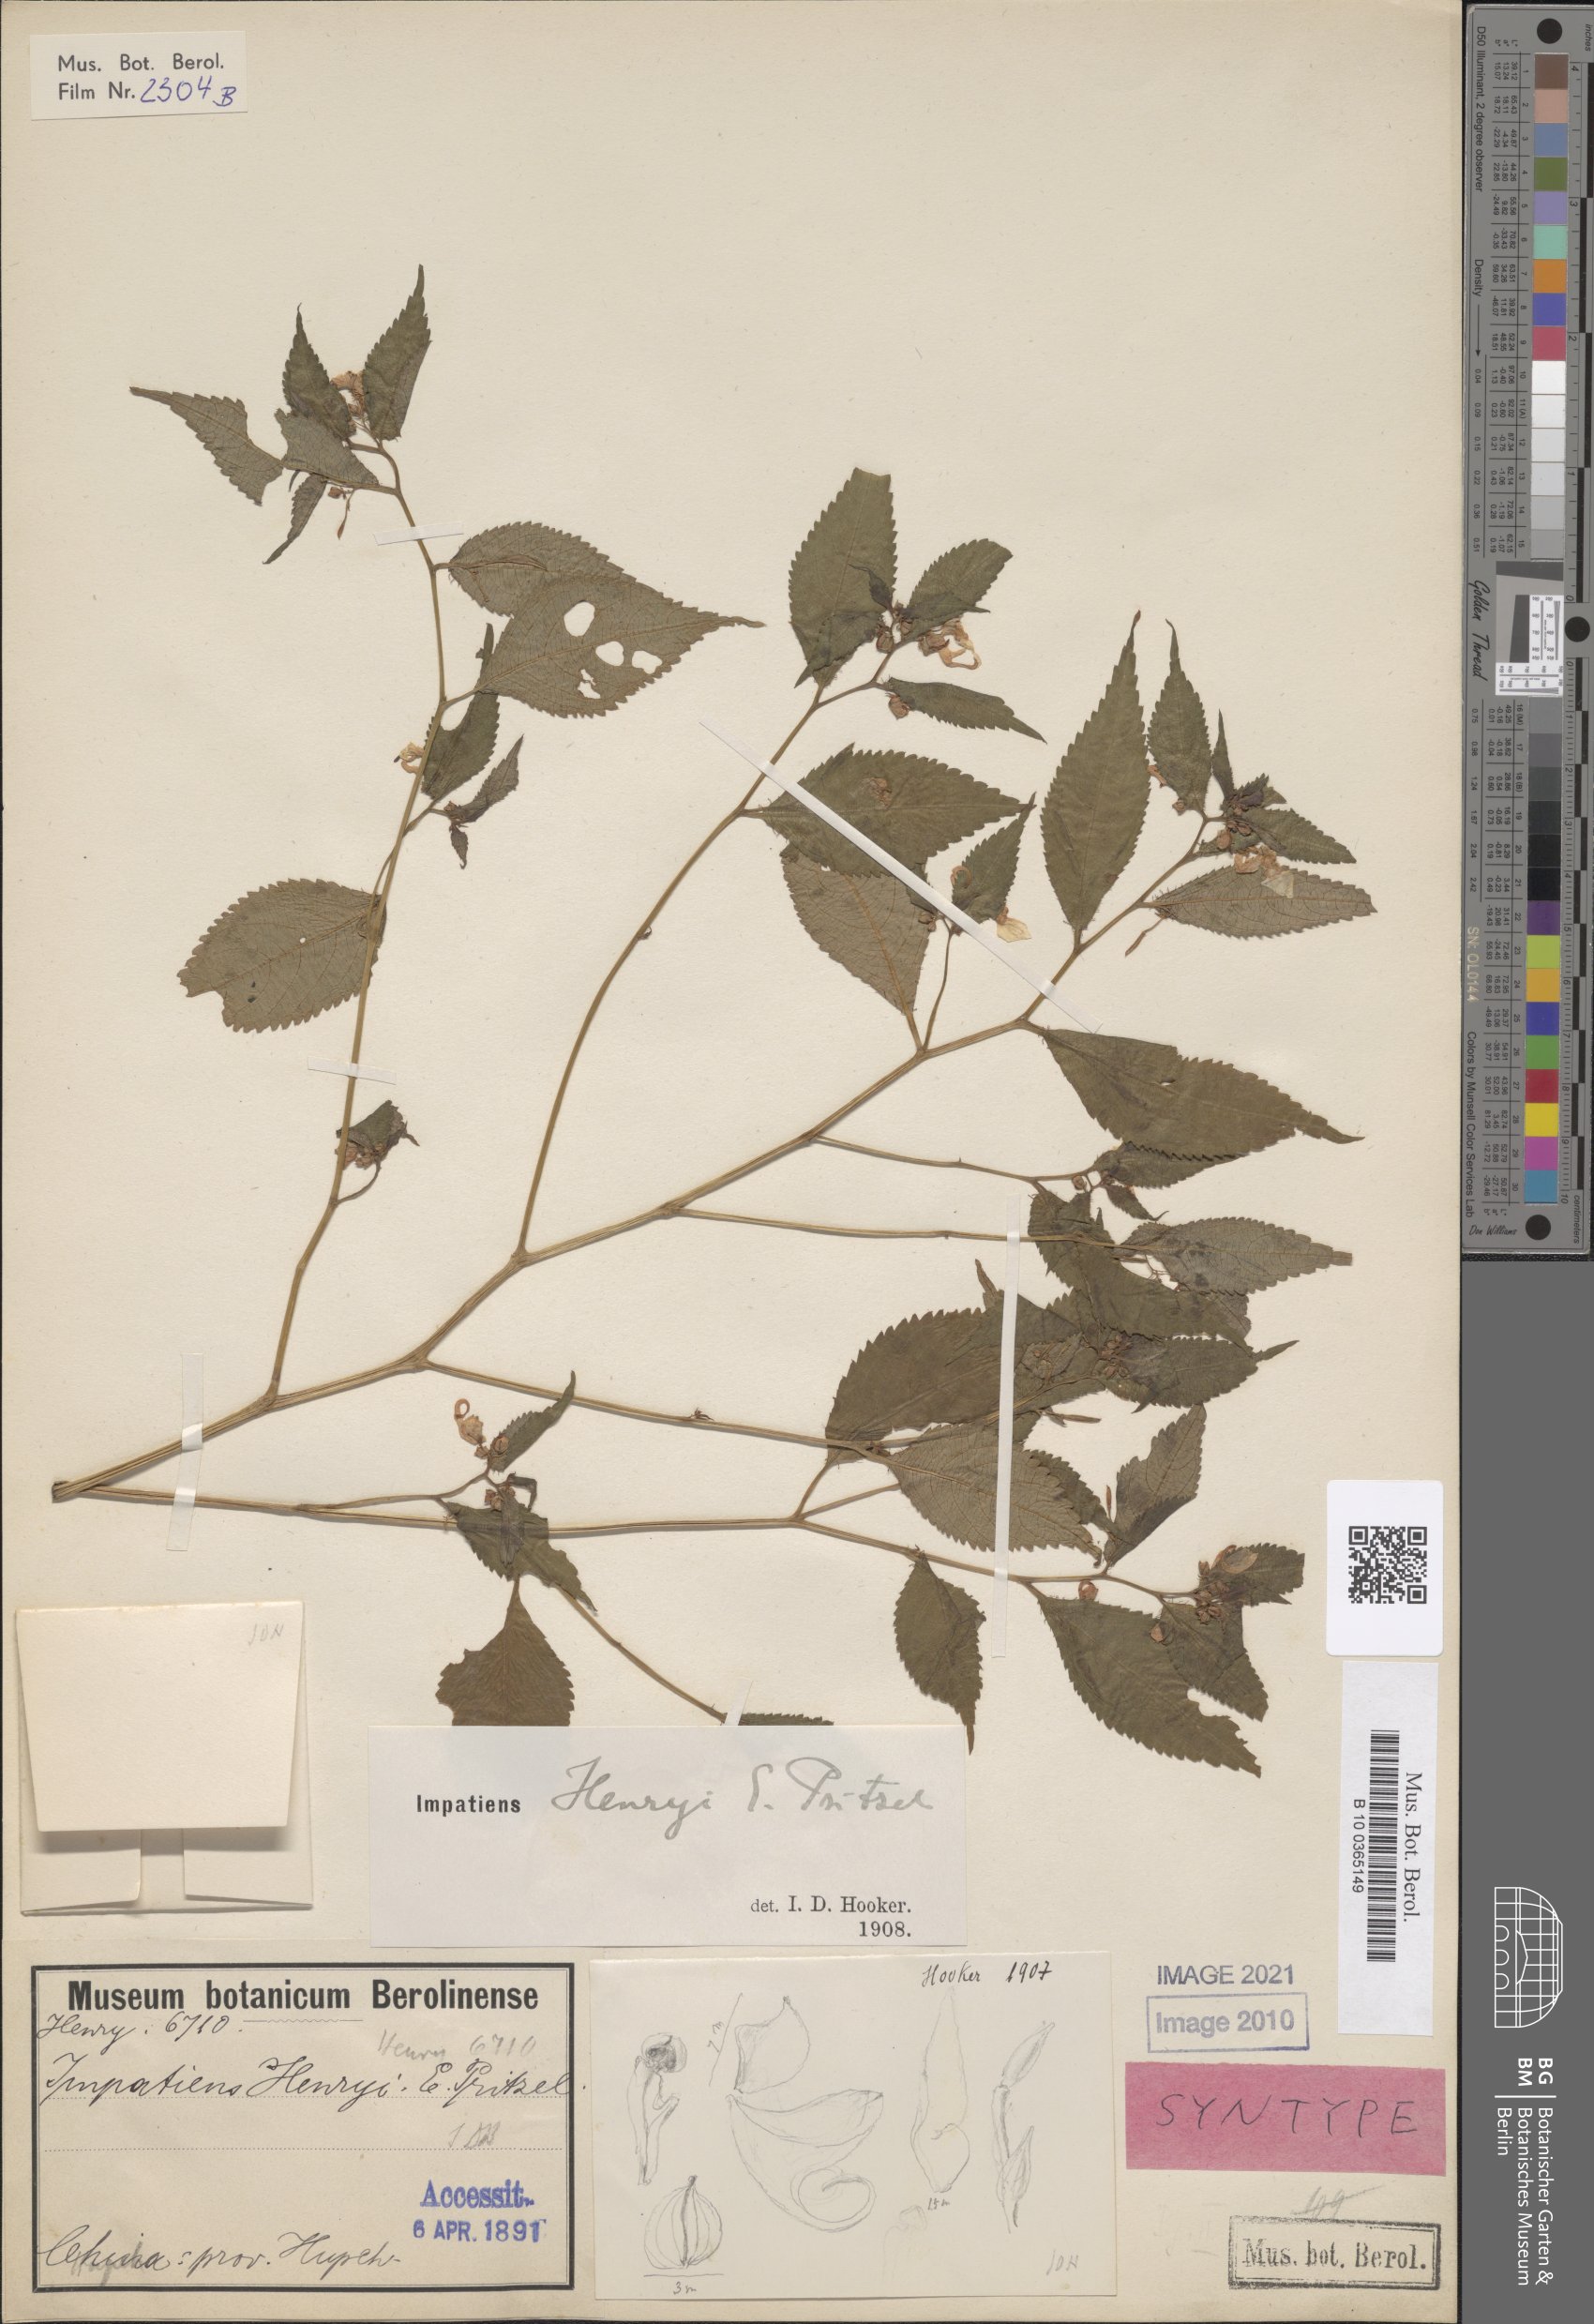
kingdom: Plantae
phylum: Tracheophyta
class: Magnoliopsida
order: Ericales
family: Balsaminaceae
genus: Impatiens
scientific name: Impatiens henryi
